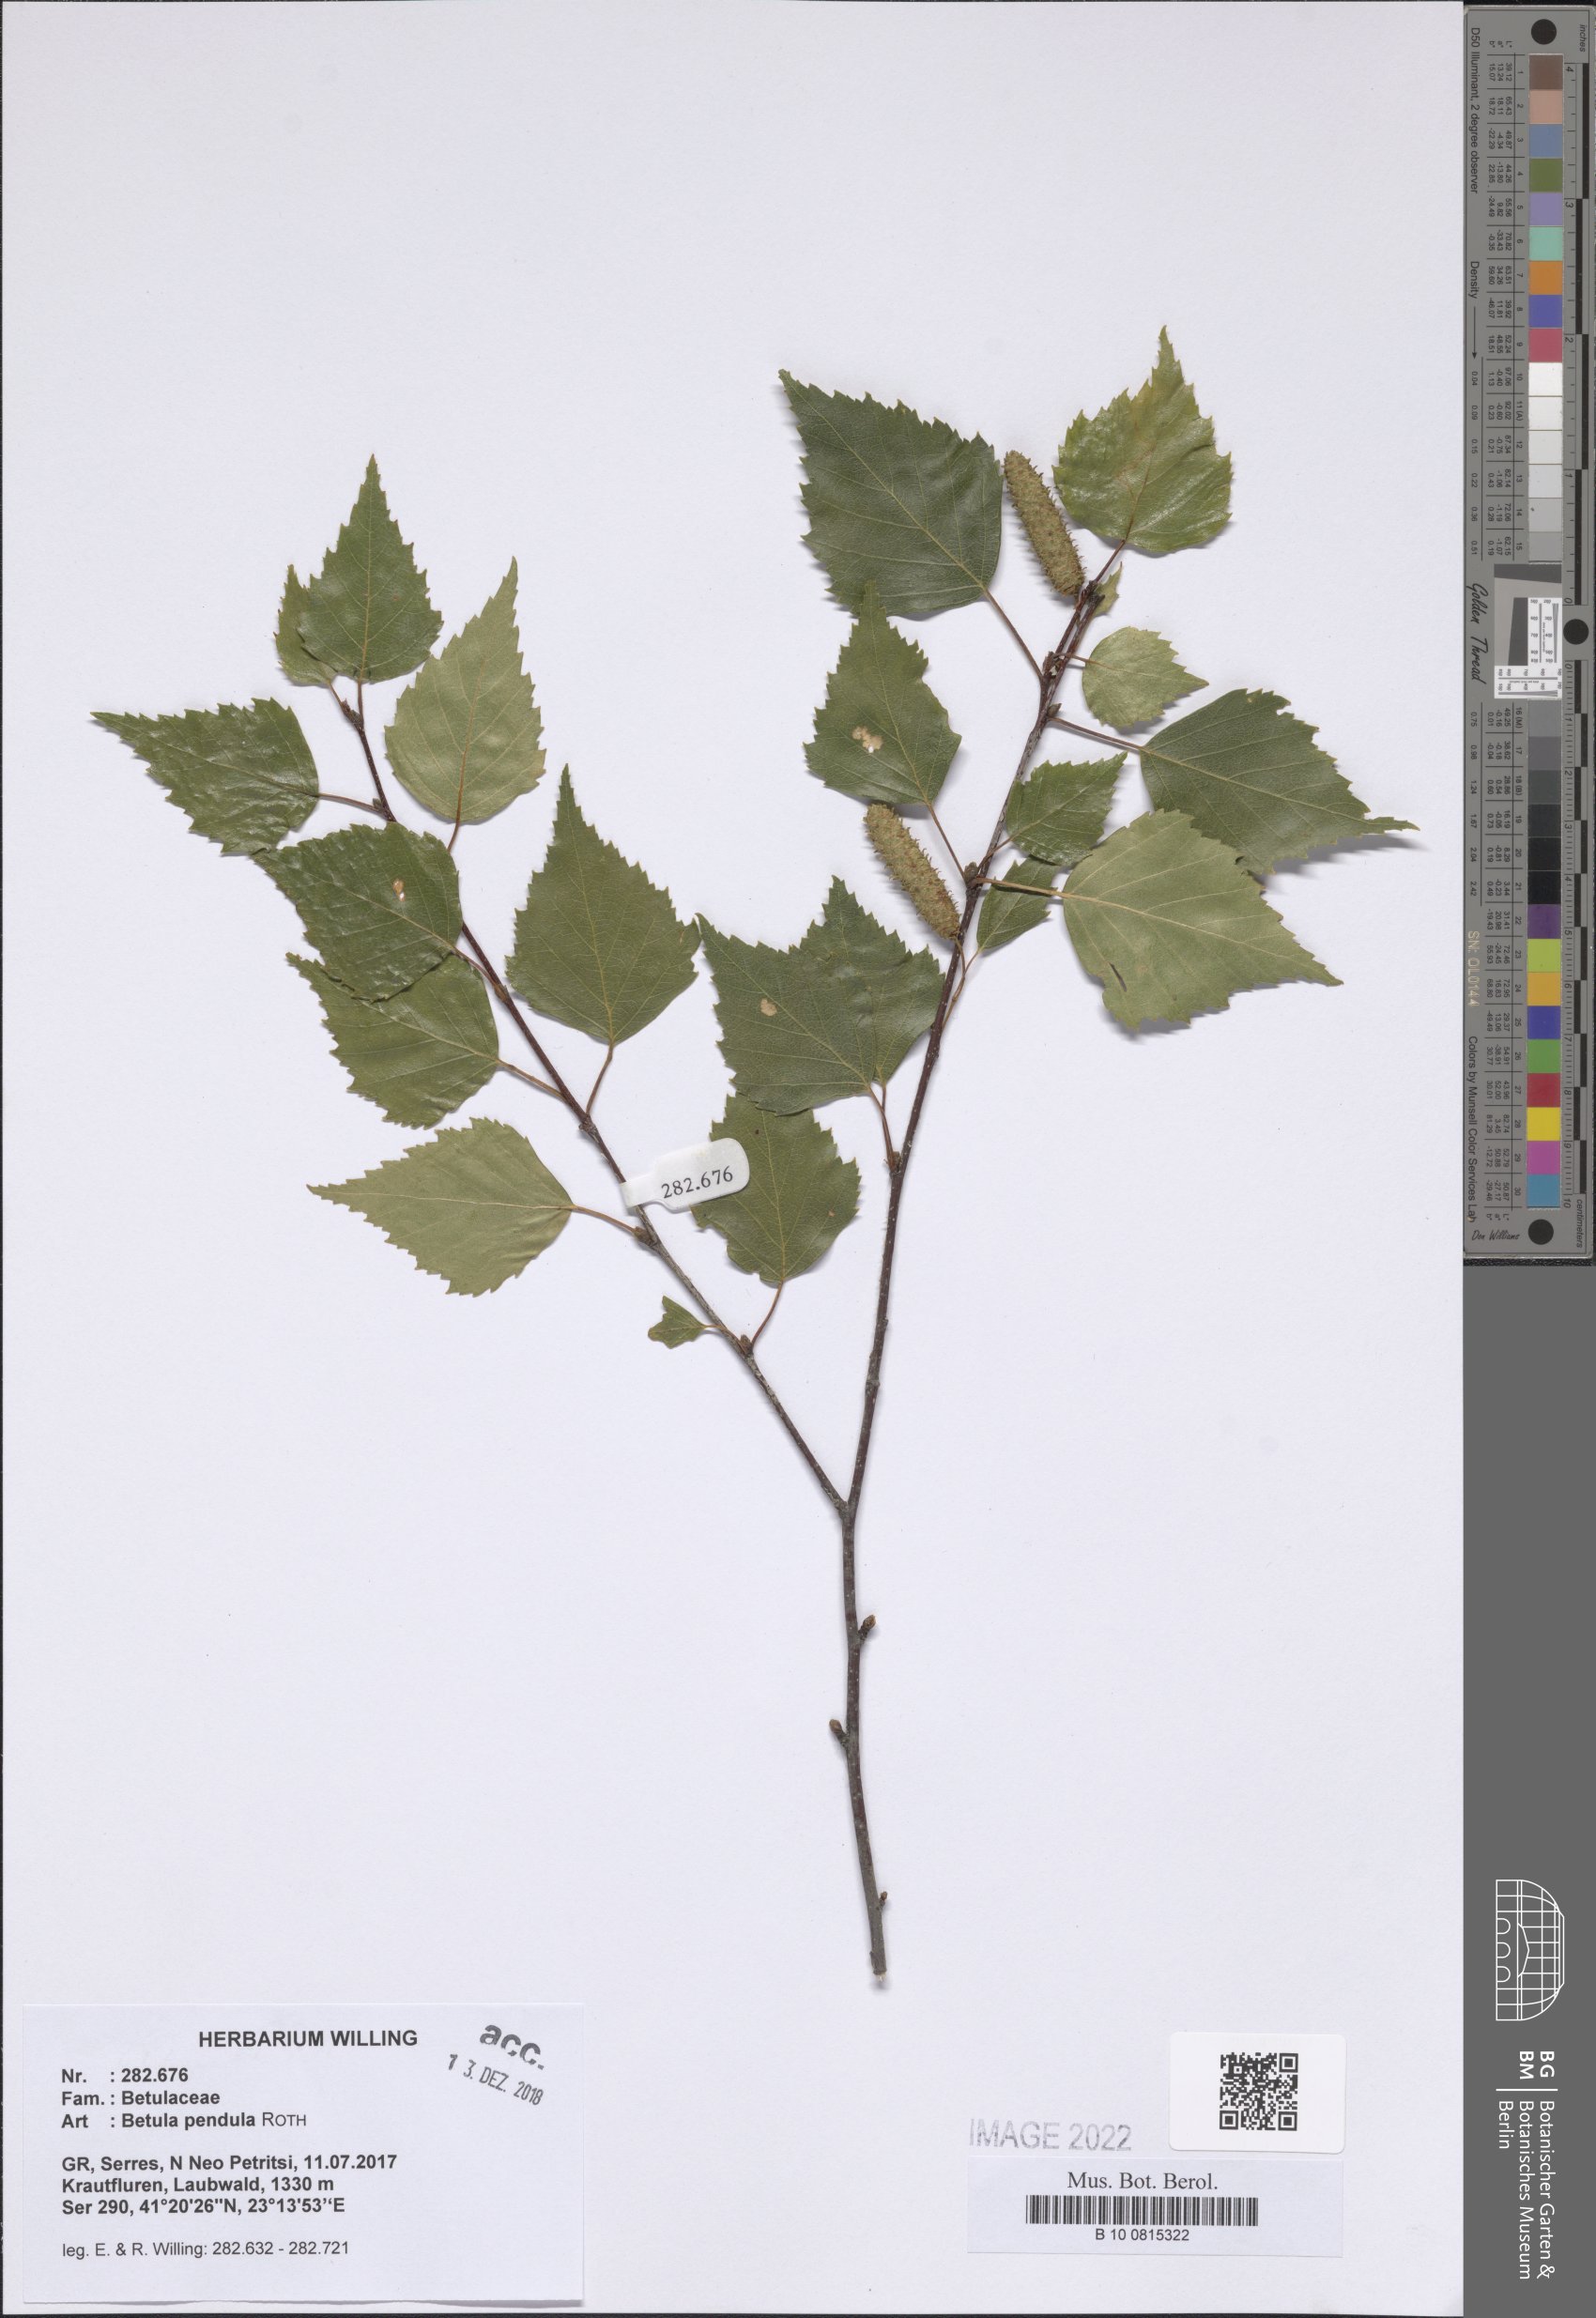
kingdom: Plantae
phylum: Tracheophyta
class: Magnoliopsida
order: Fagales
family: Betulaceae
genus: Betula
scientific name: Betula pendula
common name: Silver birch
